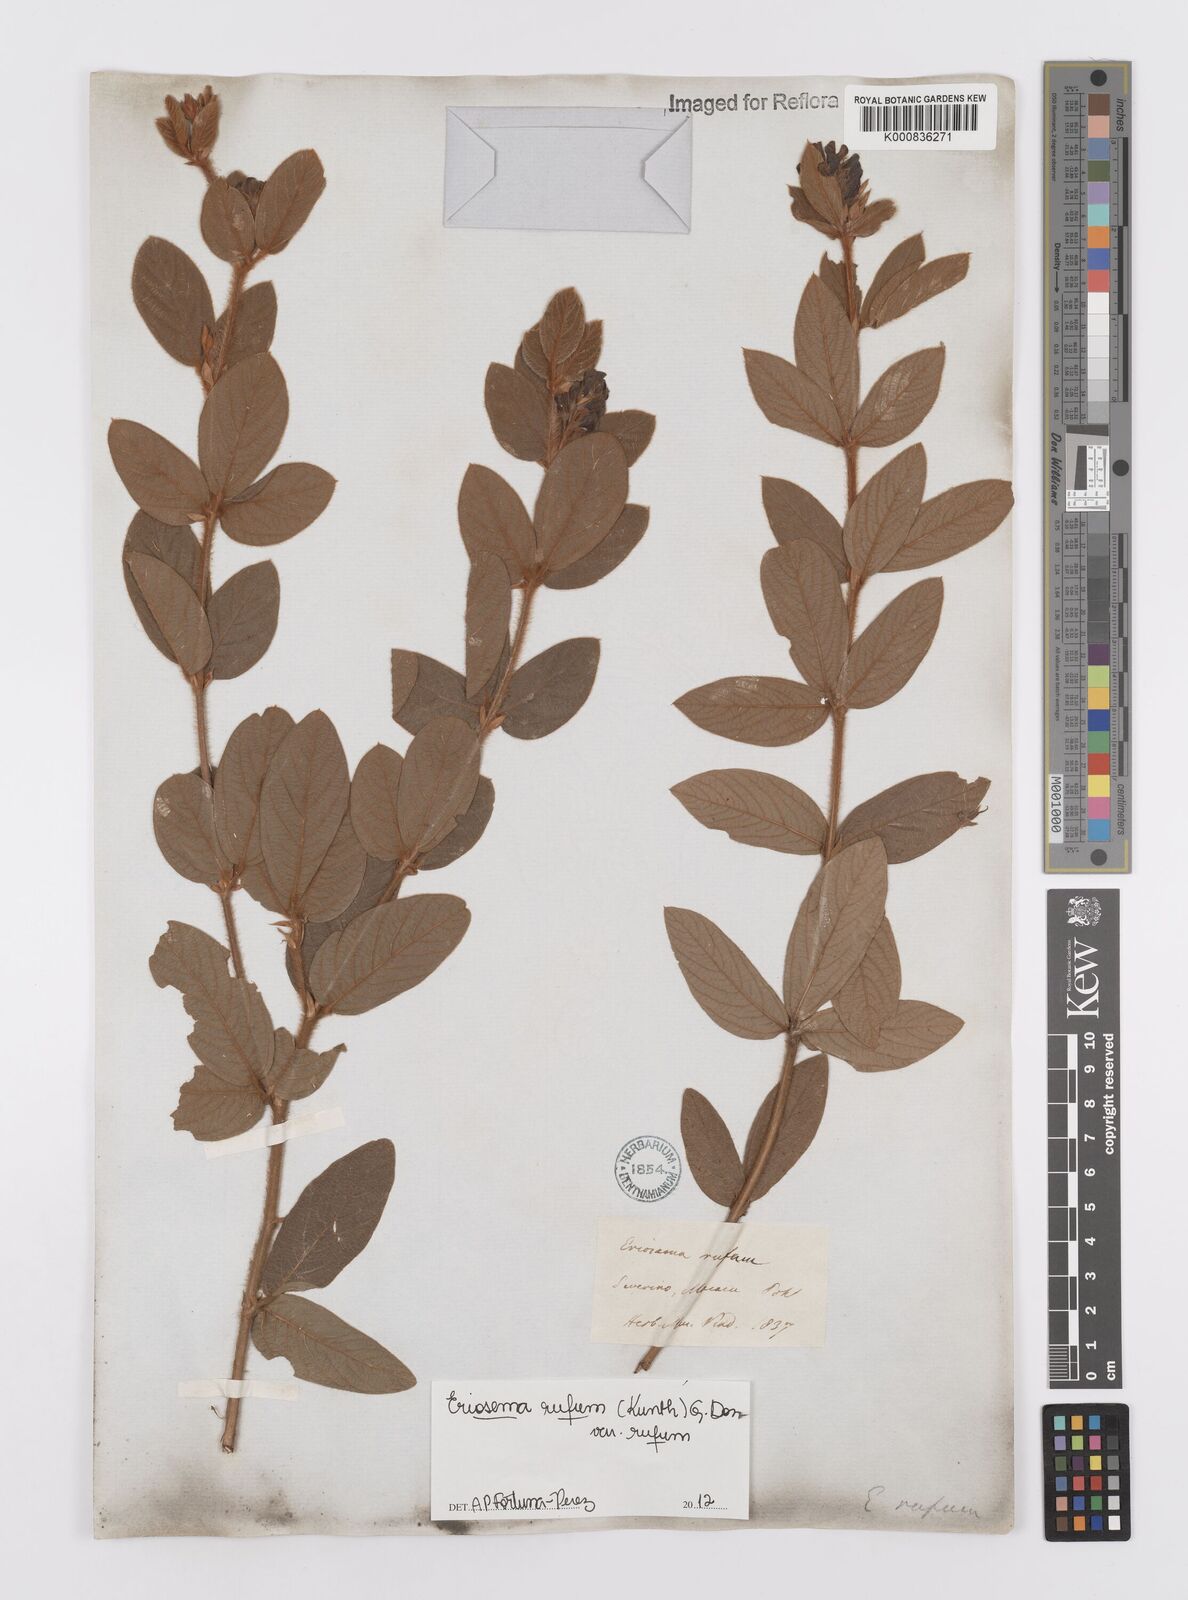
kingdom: Plantae
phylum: Tracheophyta
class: Magnoliopsida
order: Fabales
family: Fabaceae
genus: Eriosema
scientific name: Eriosema rufum
